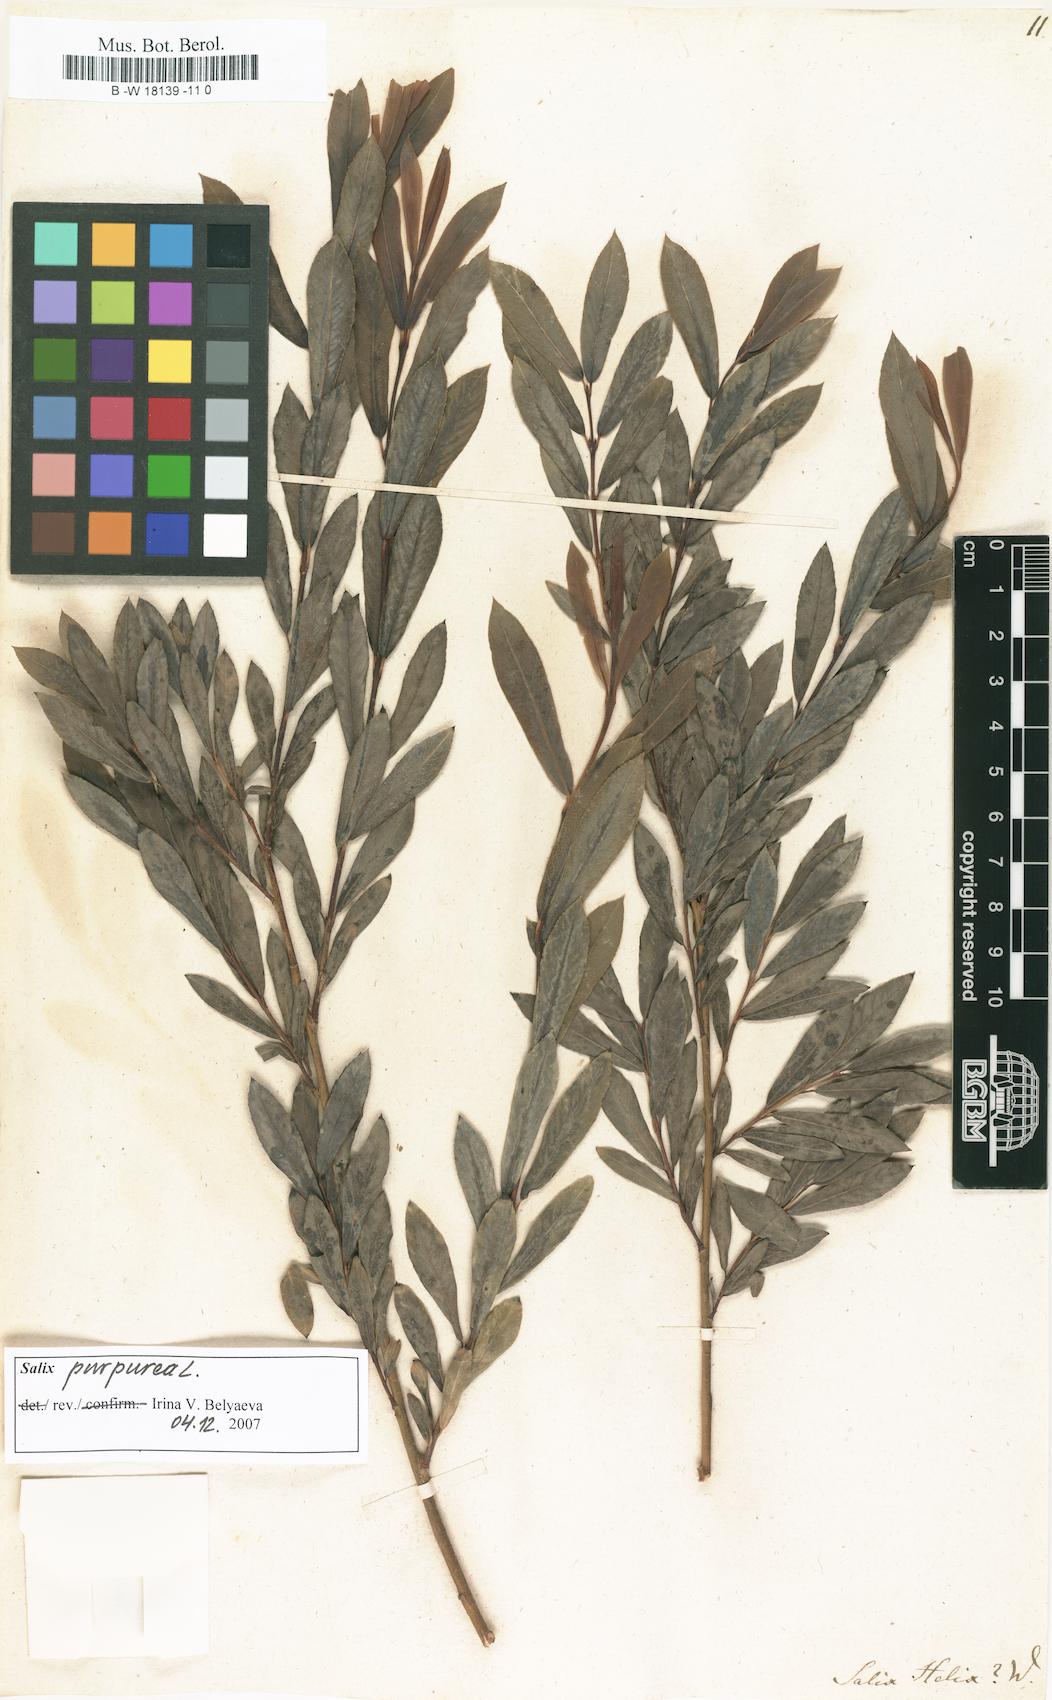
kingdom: Plantae
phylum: Tracheophyta
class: Magnoliopsida
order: Malpighiales
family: Salicaceae
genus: Salix
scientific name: Salix purpurea
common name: Purple willow
